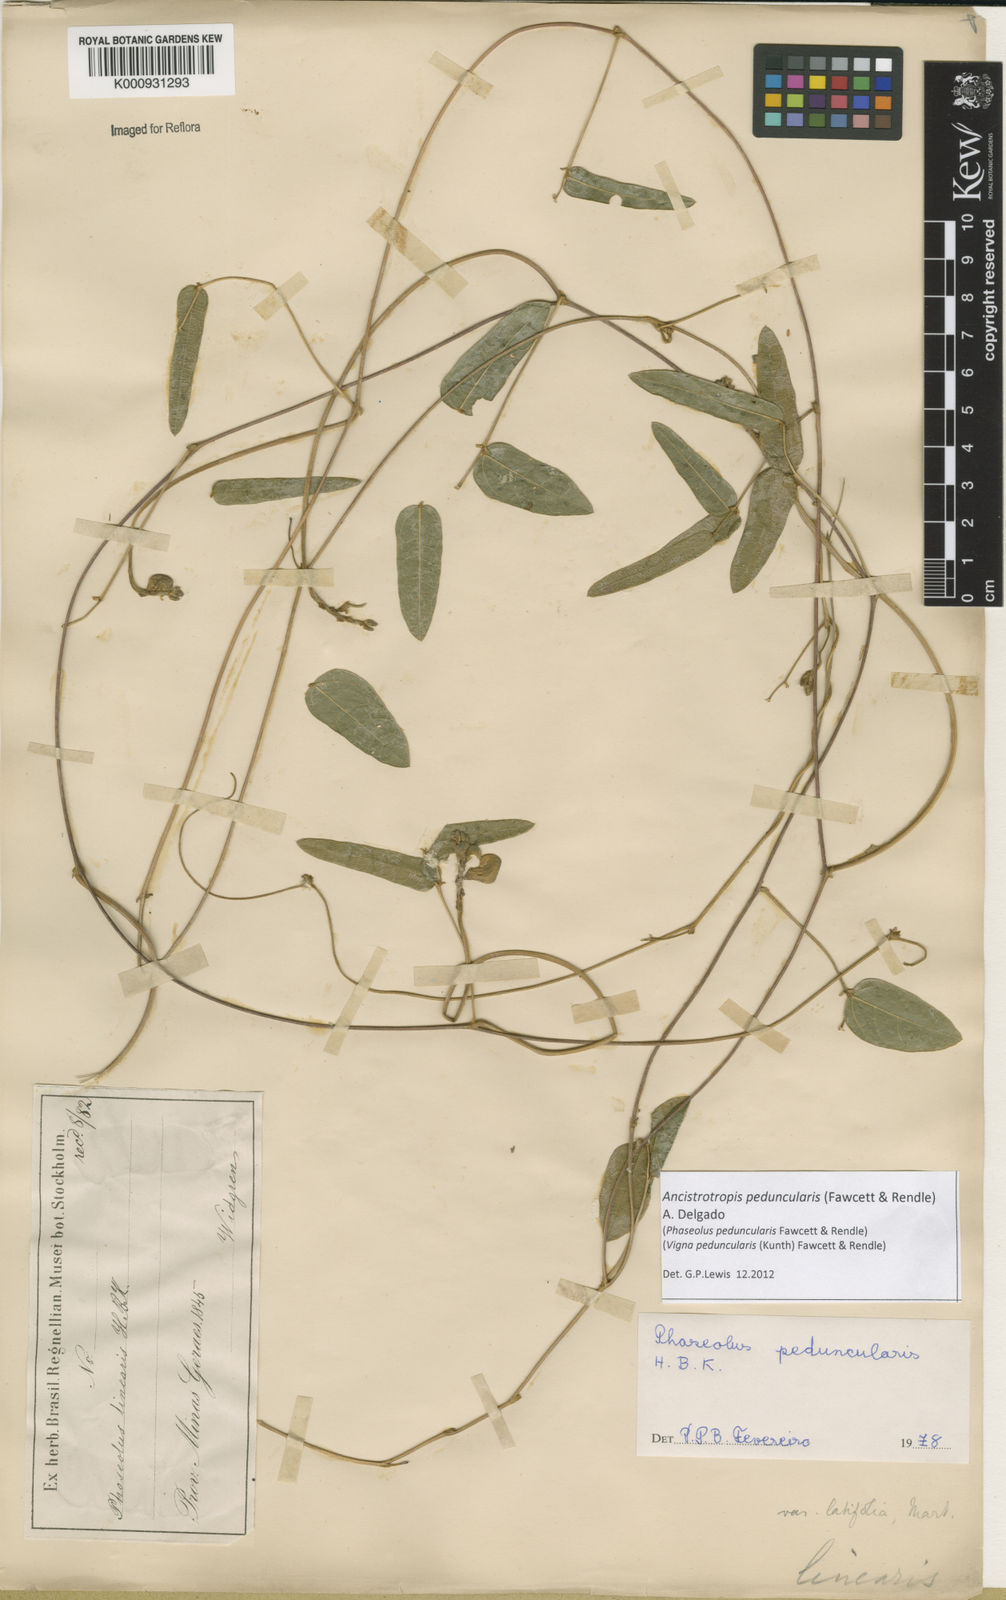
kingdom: Plantae
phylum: Tracheophyta
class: Magnoliopsida
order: Fabales
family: Fabaceae
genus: Ancistrotropis
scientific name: Ancistrotropis peduncularis
